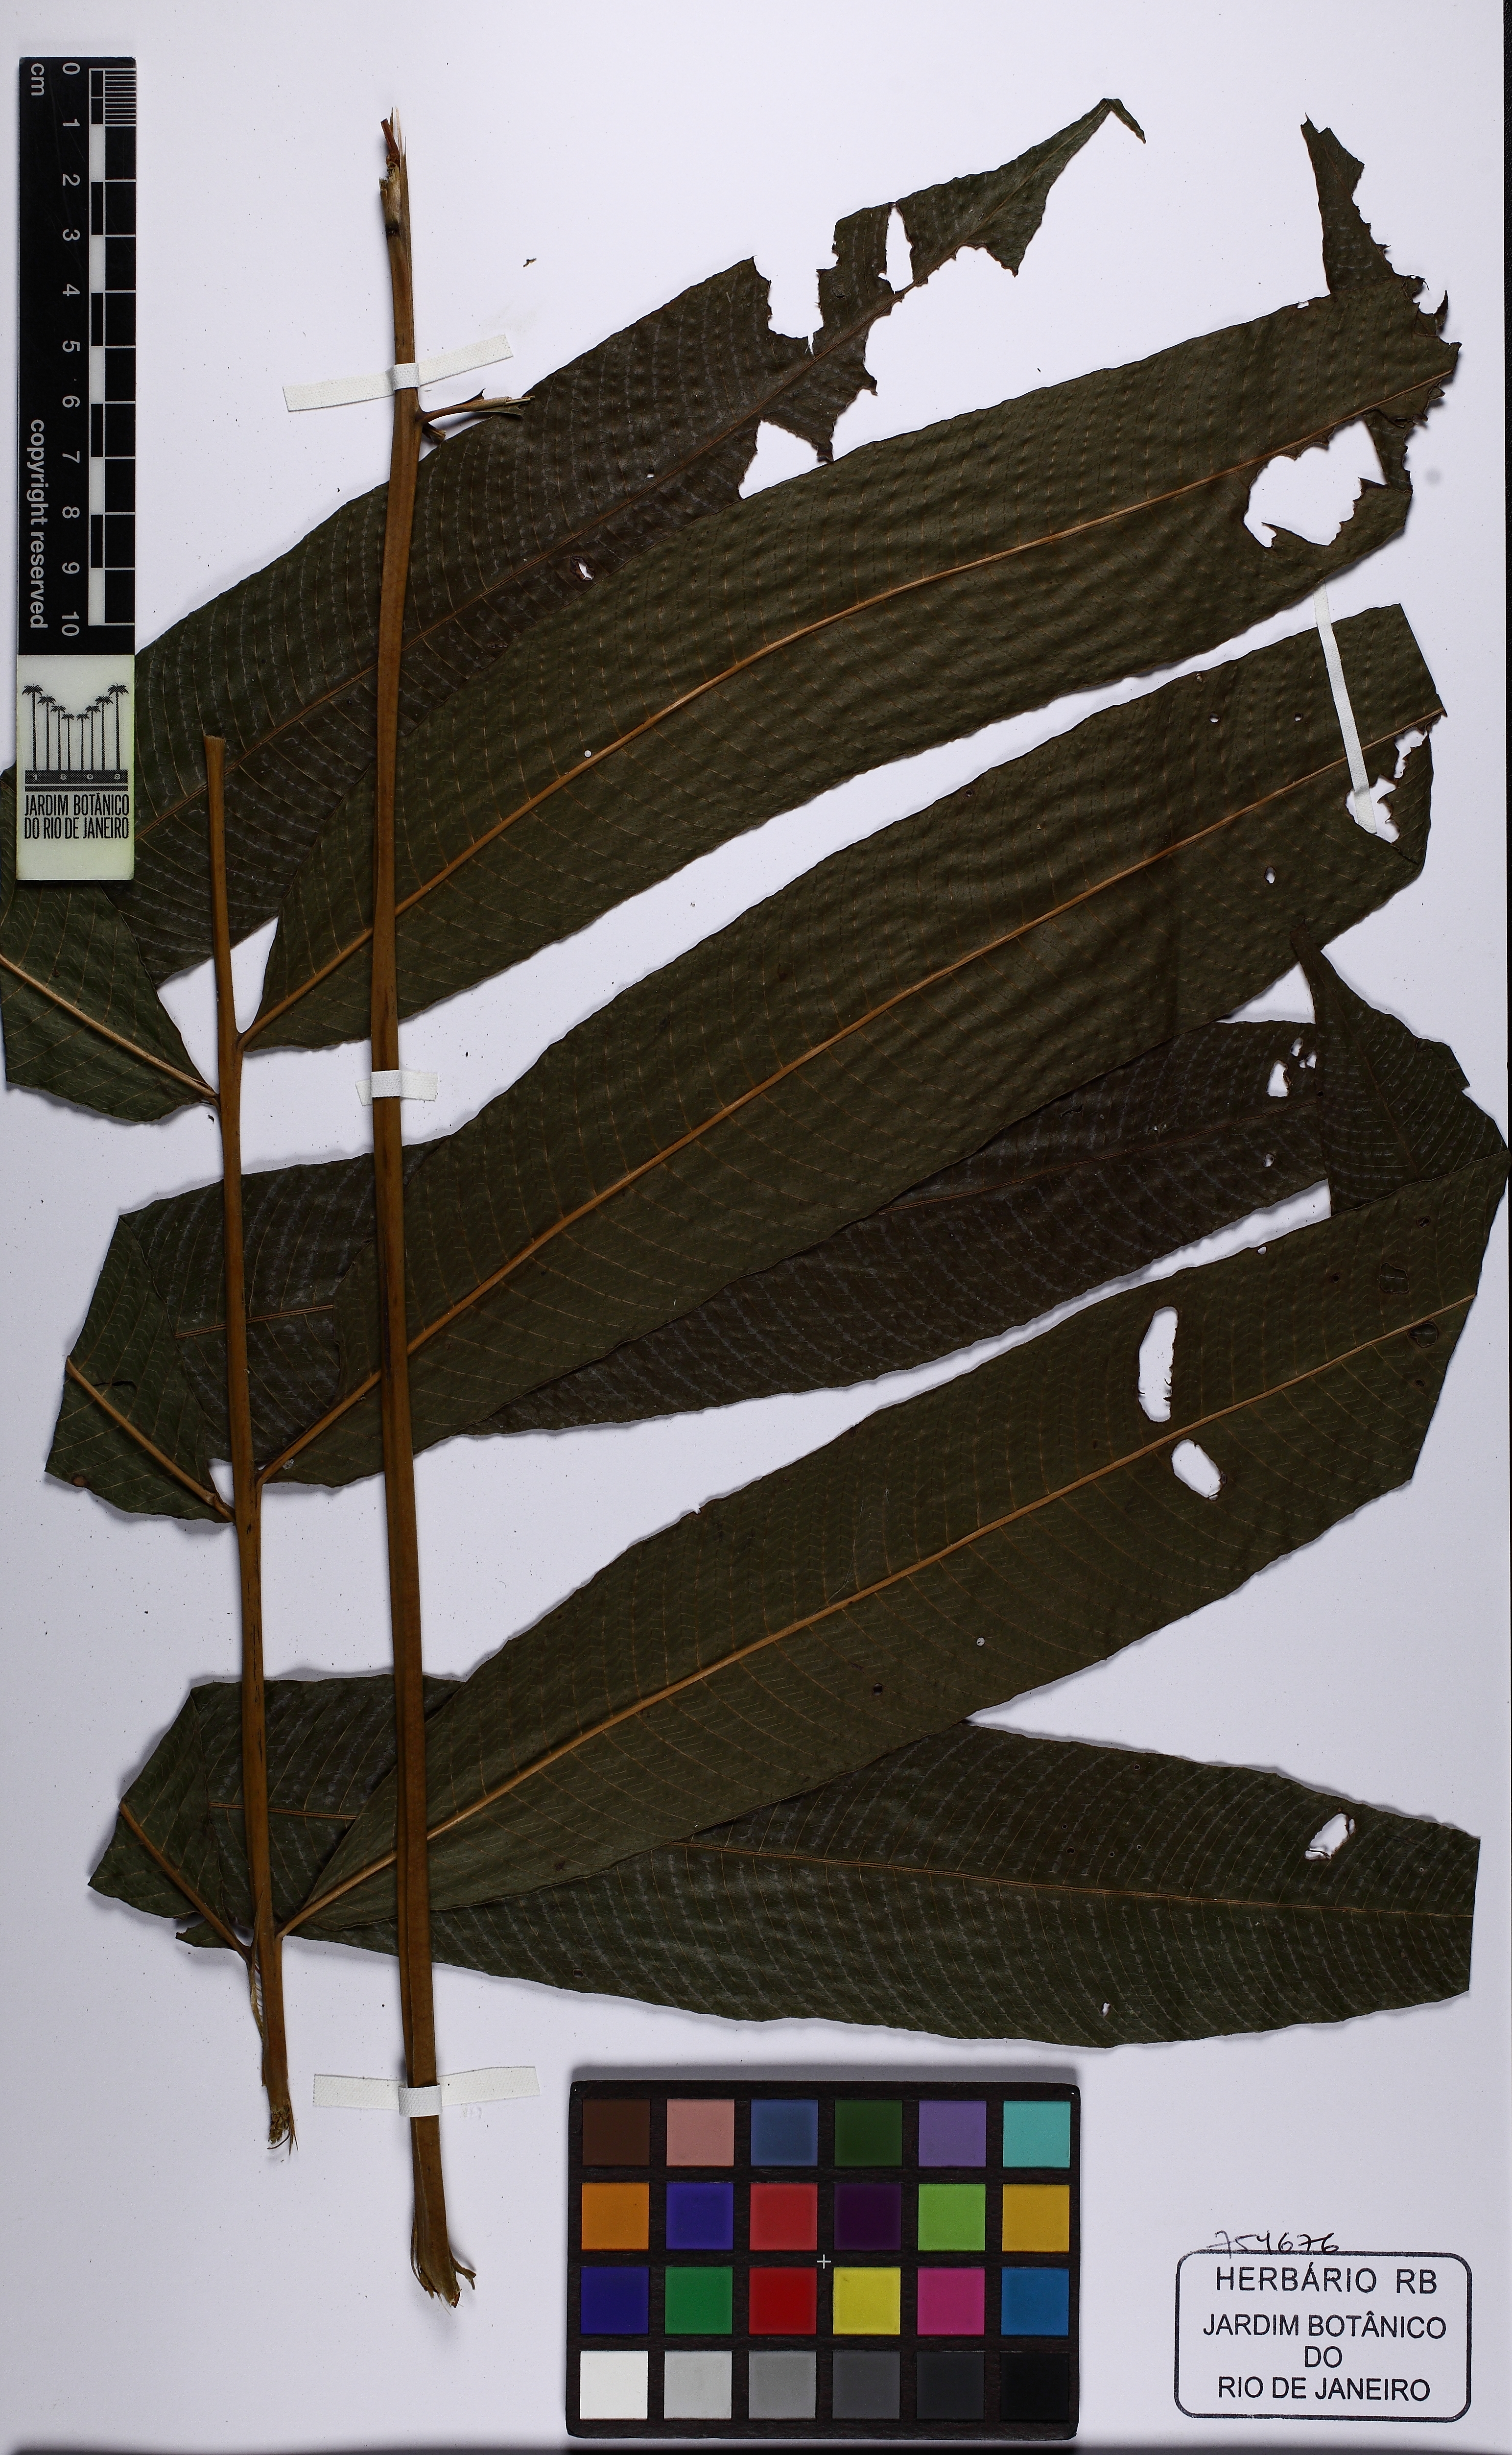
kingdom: Plantae
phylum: Tracheophyta
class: Polypodiopsida
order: Polypodiales
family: Thelypteridaceae
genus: Meniscium
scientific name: Meniscium macrophyllum
